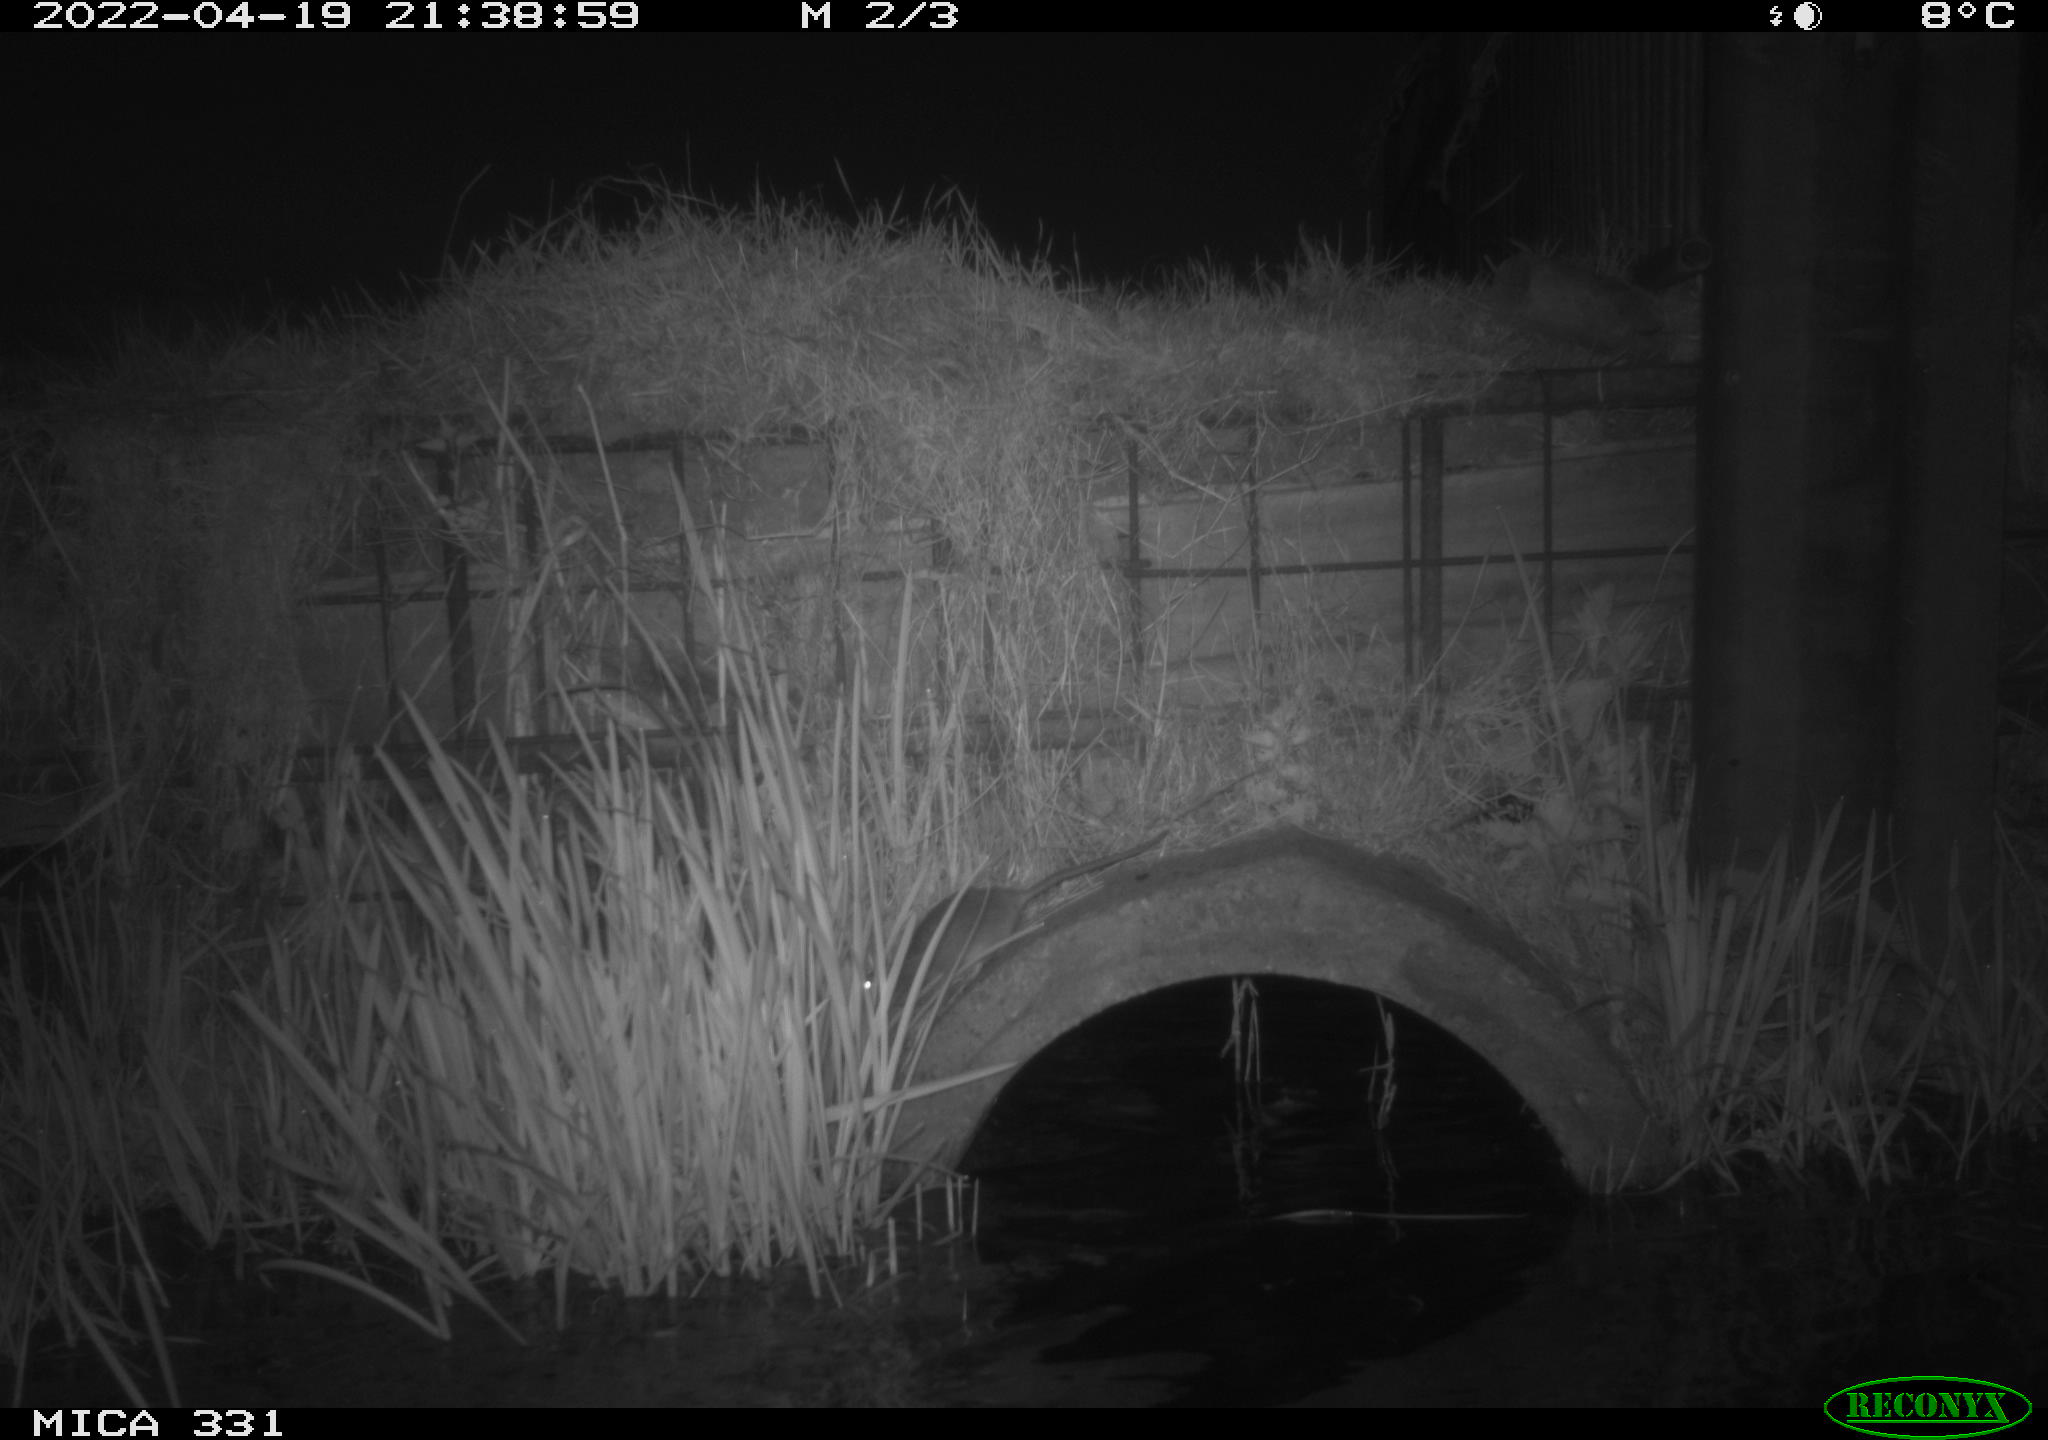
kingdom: Animalia
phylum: Chordata
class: Mammalia
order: Rodentia
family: Muridae
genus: Rattus
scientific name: Rattus norvegicus
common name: Brown rat
